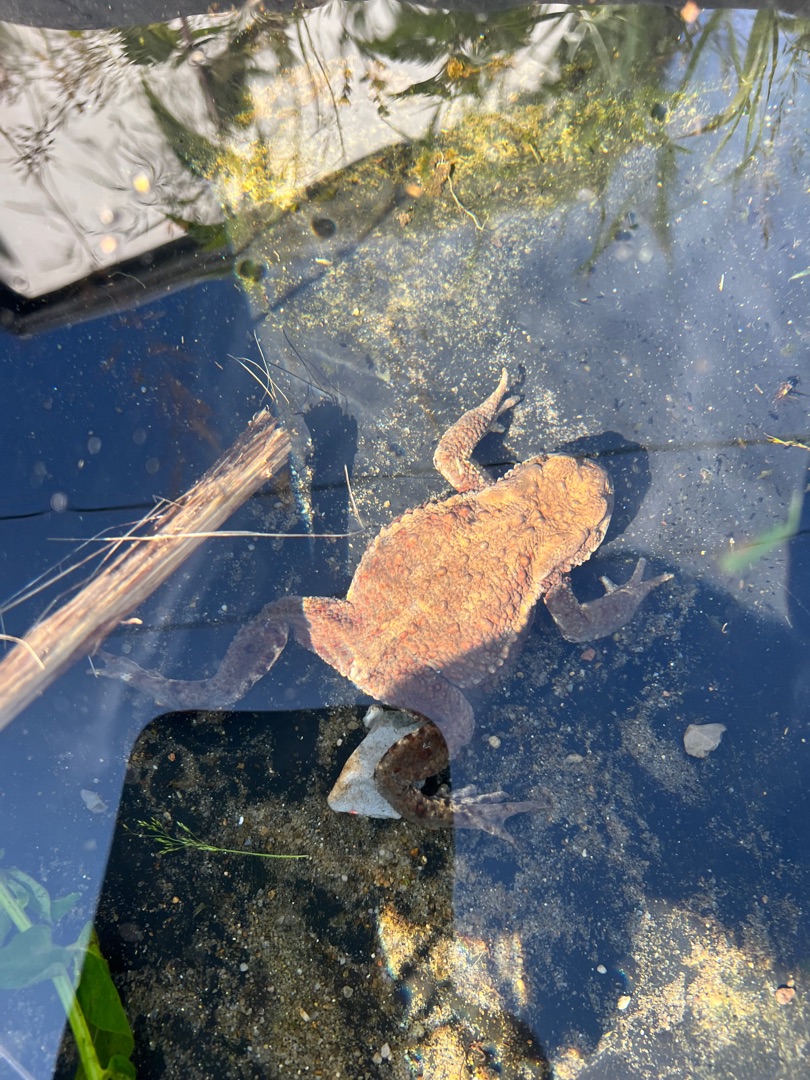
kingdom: Animalia
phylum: Chordata
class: Amphibia
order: Anura
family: Bufonidae
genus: Bufo
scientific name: Bufo bufo
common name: Skrubtudse
